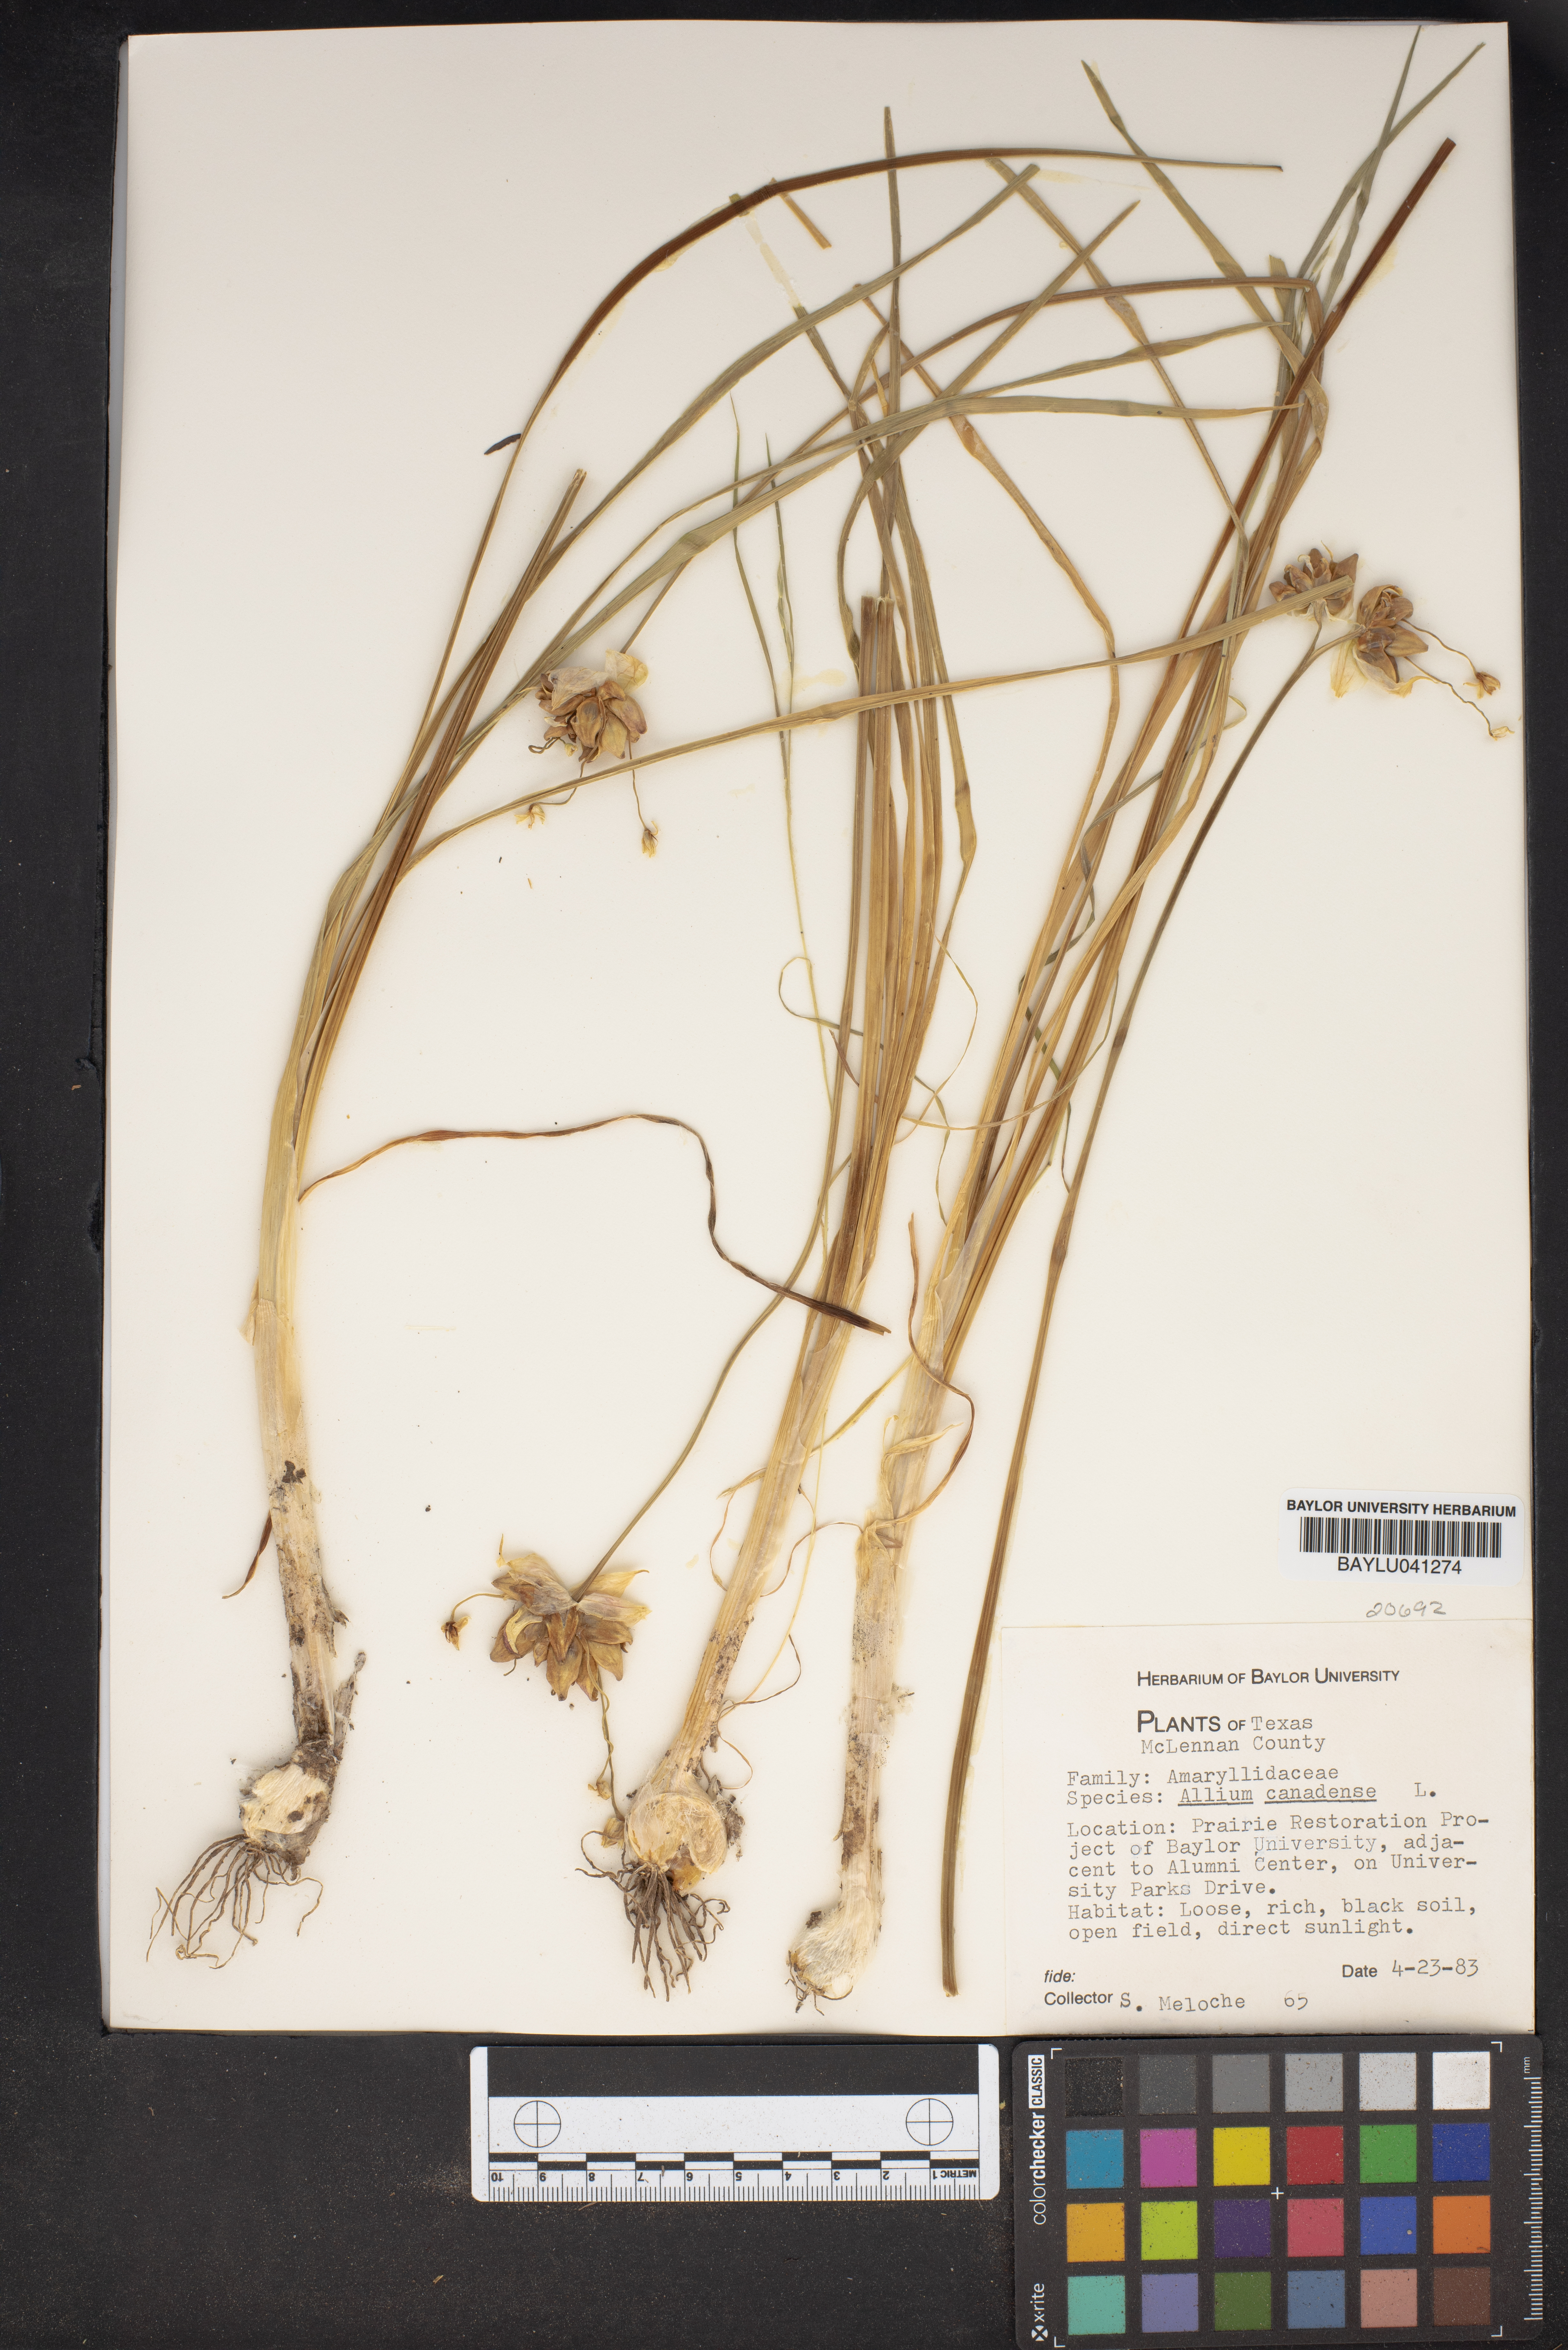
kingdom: Plantae
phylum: Tracheophyta
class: Liliopsida
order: Asparagales
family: Amaryllidaceae
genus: Allium
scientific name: Allium canadense
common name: Meadow garlic
